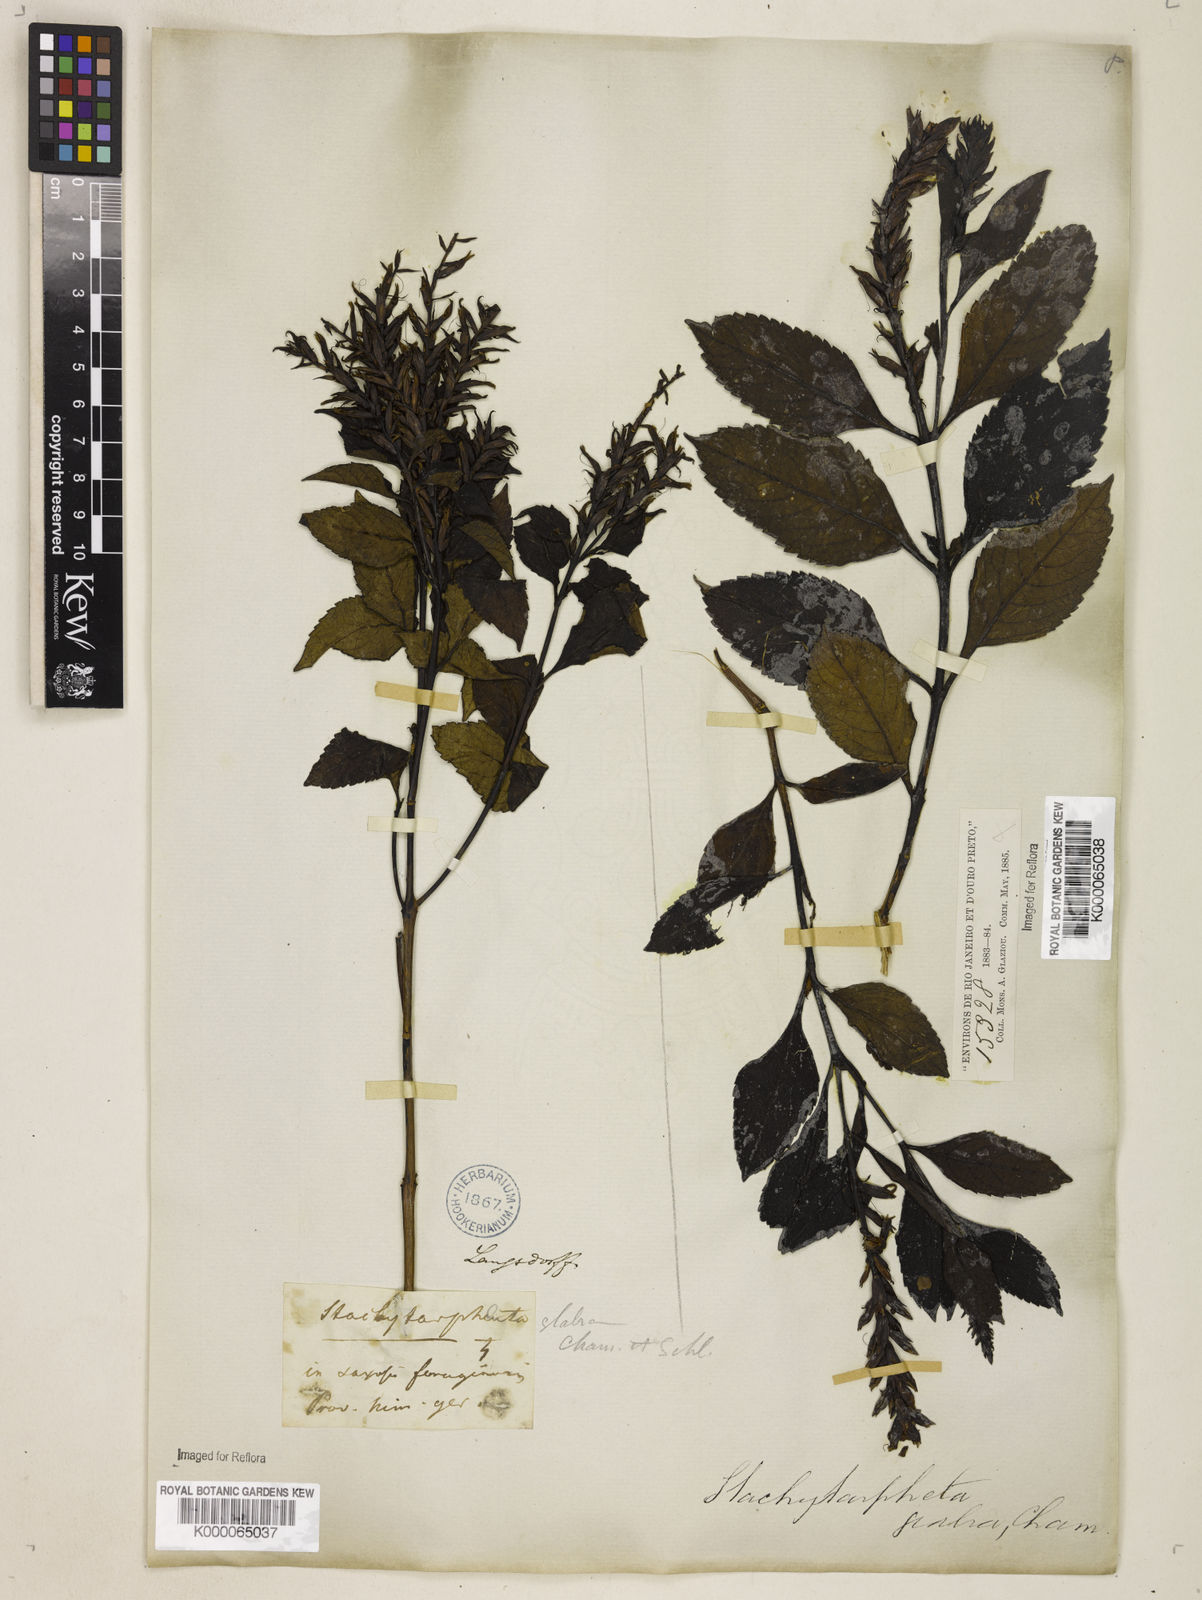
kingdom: Plantae
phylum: Tracheophyta
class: Magnoliopsida
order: Lamiales
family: Verbenaceae
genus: Stachytarpheta
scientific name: Stachytarpheta glabra
